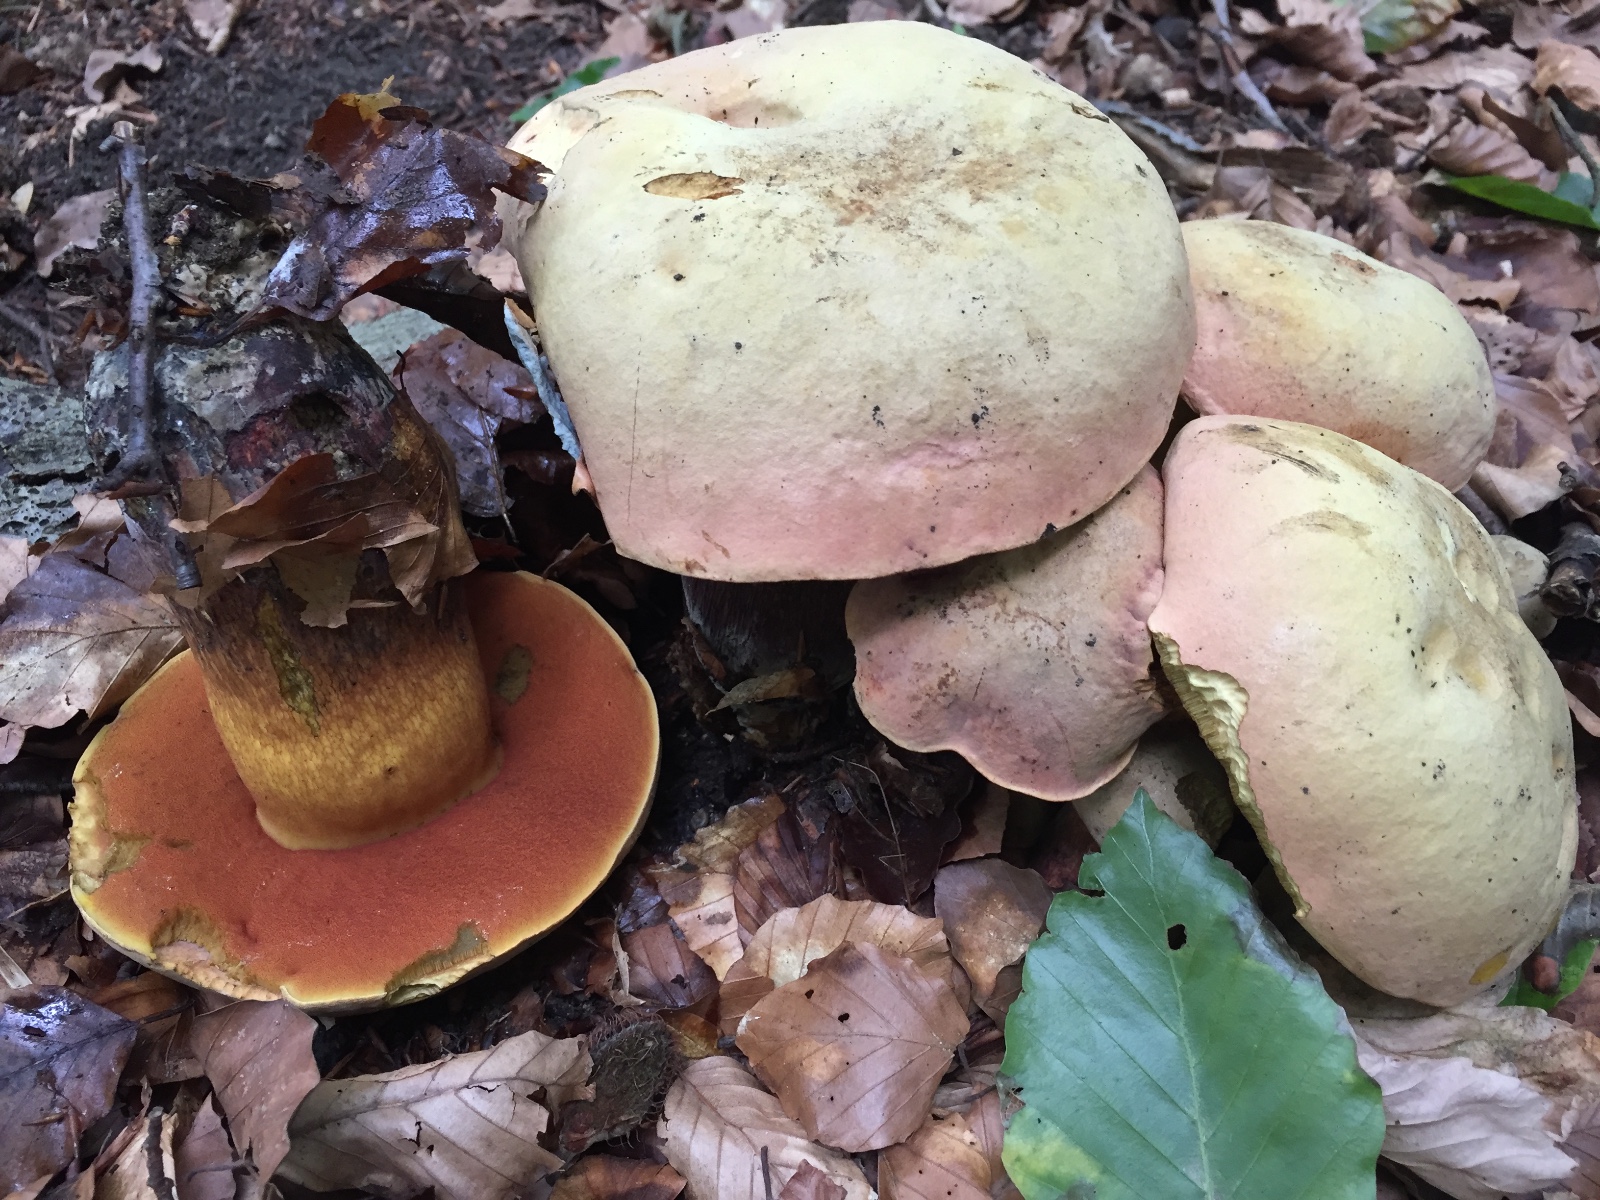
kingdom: Fungi
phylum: Basidiomycota
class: Agaricomycetes
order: Boletales
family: Boletaceae
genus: Suillellus
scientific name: Suillellus luridus
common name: netstokket indigorørhat
